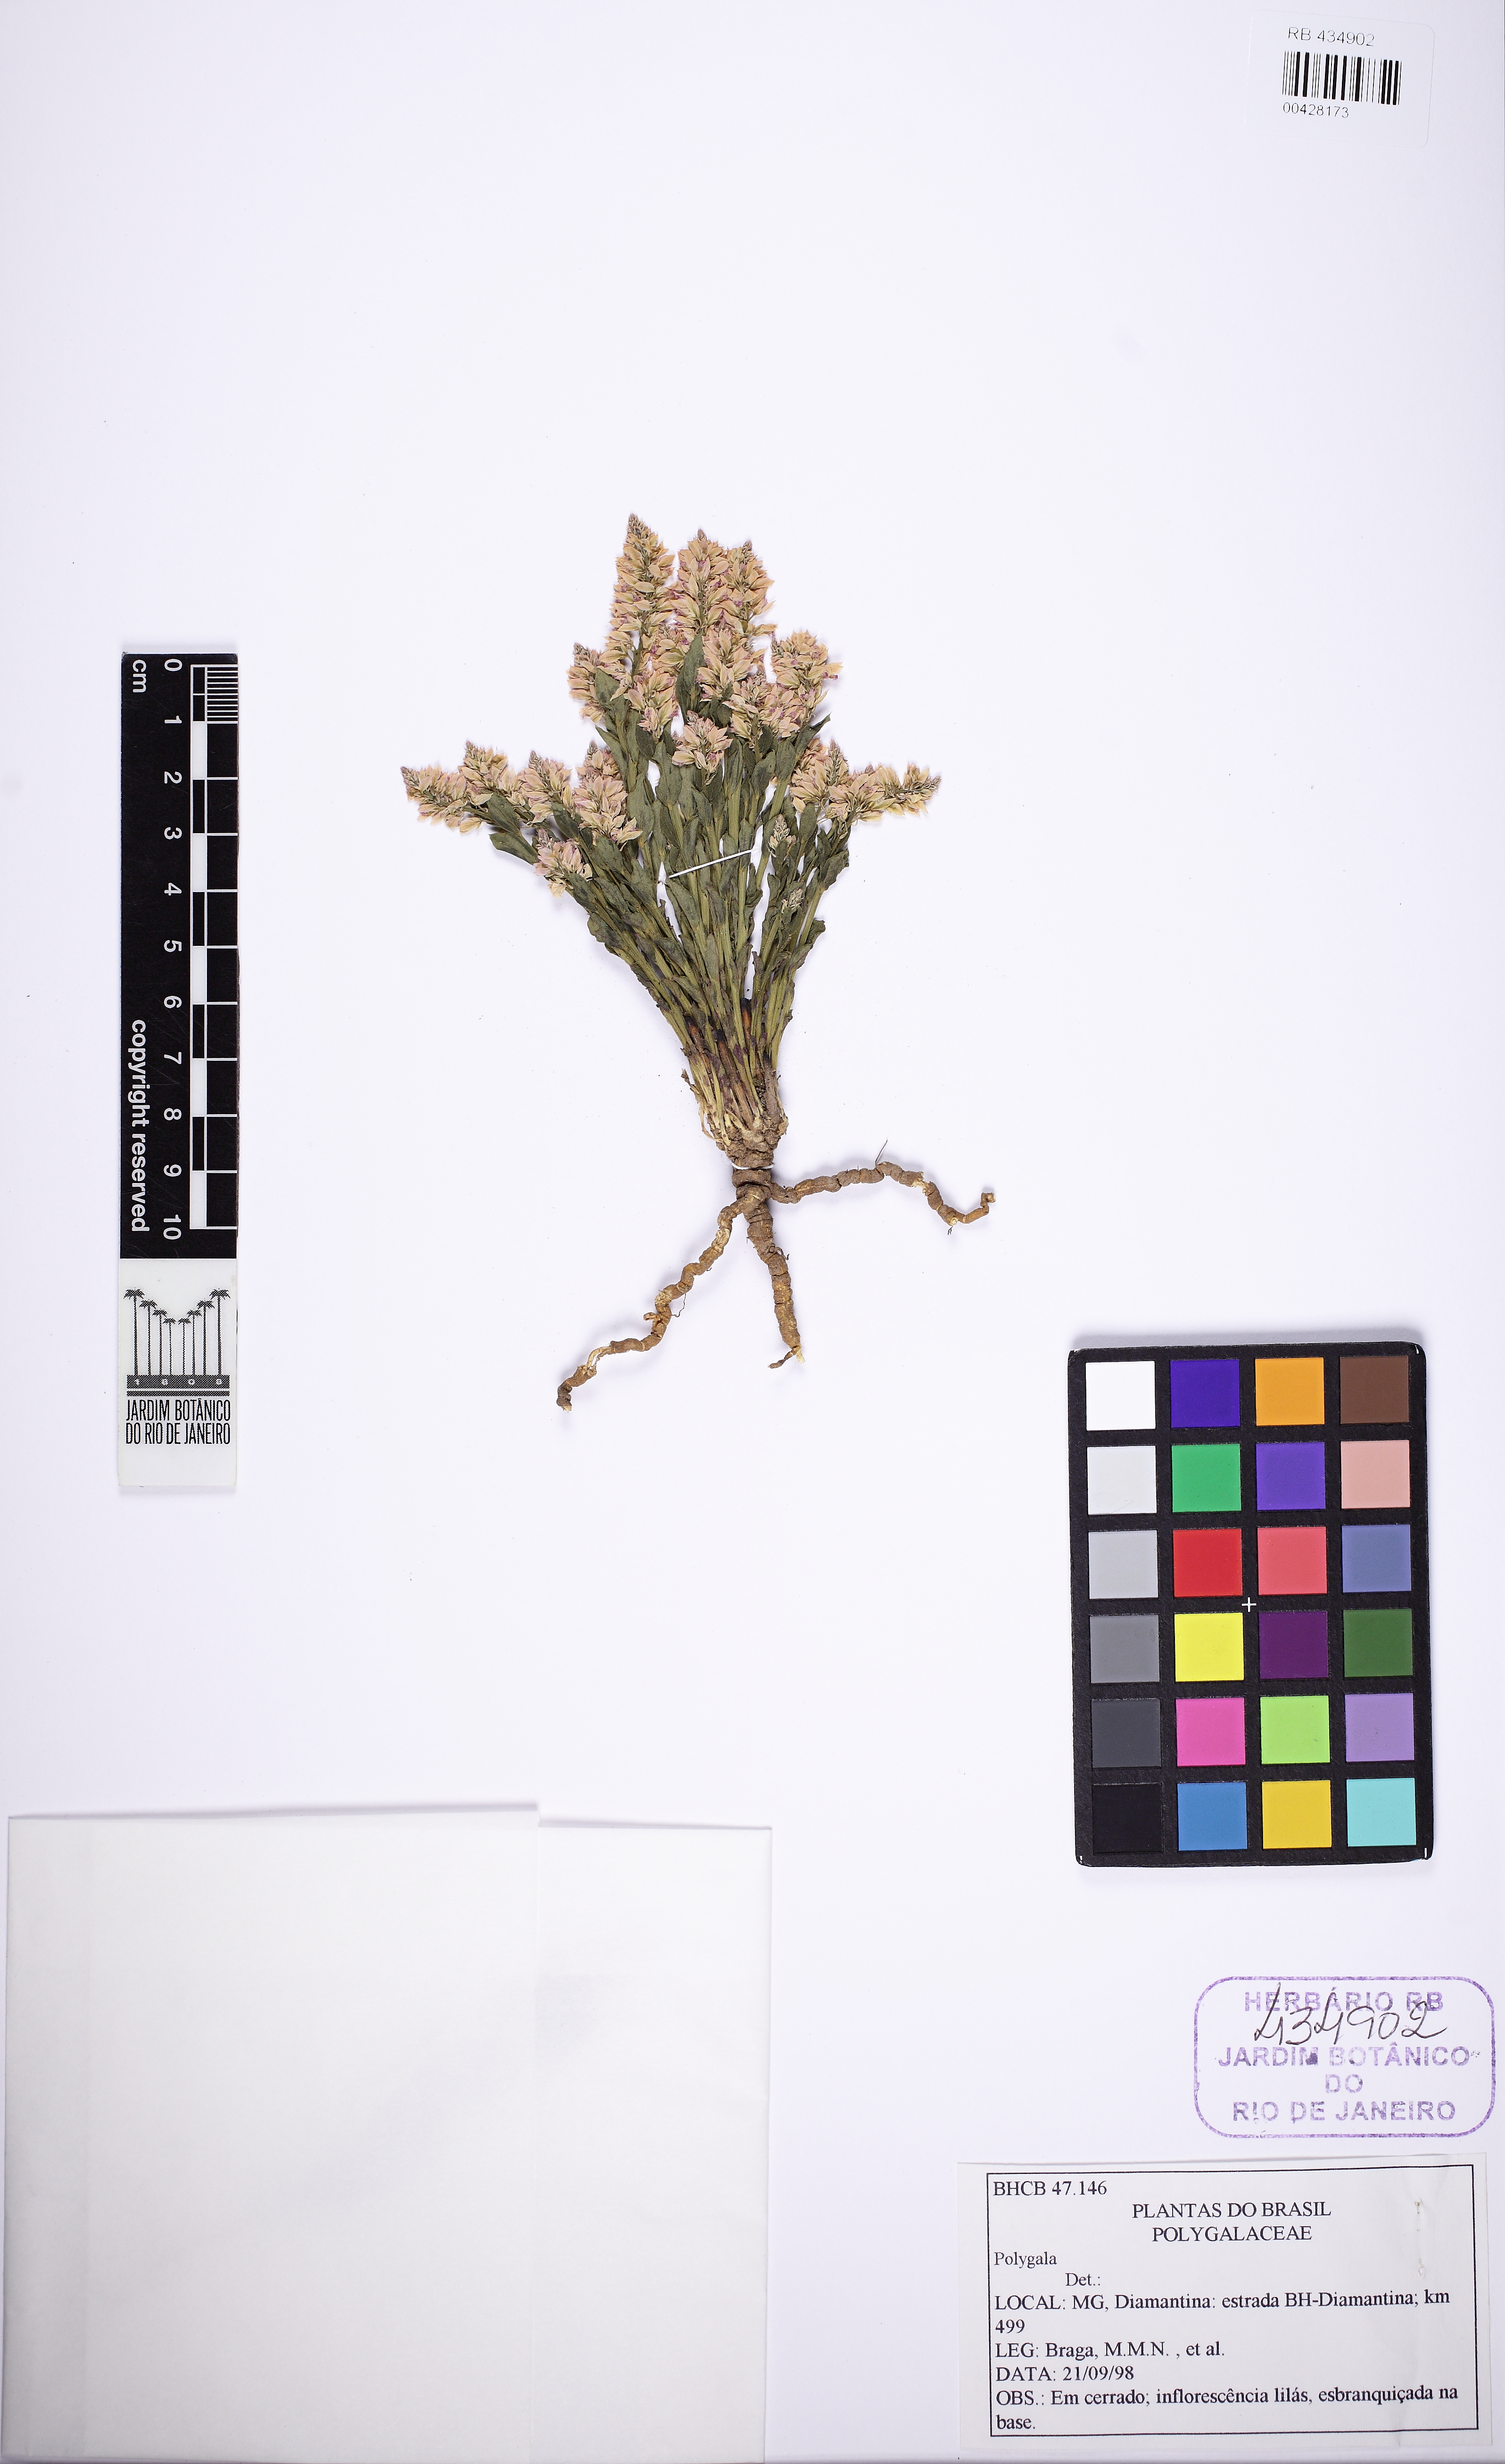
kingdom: Plantae
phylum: Tracheophyta
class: Magnoliopsida
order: Fabales
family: Polygalaceae
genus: Polygala
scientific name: Polygala poaya
